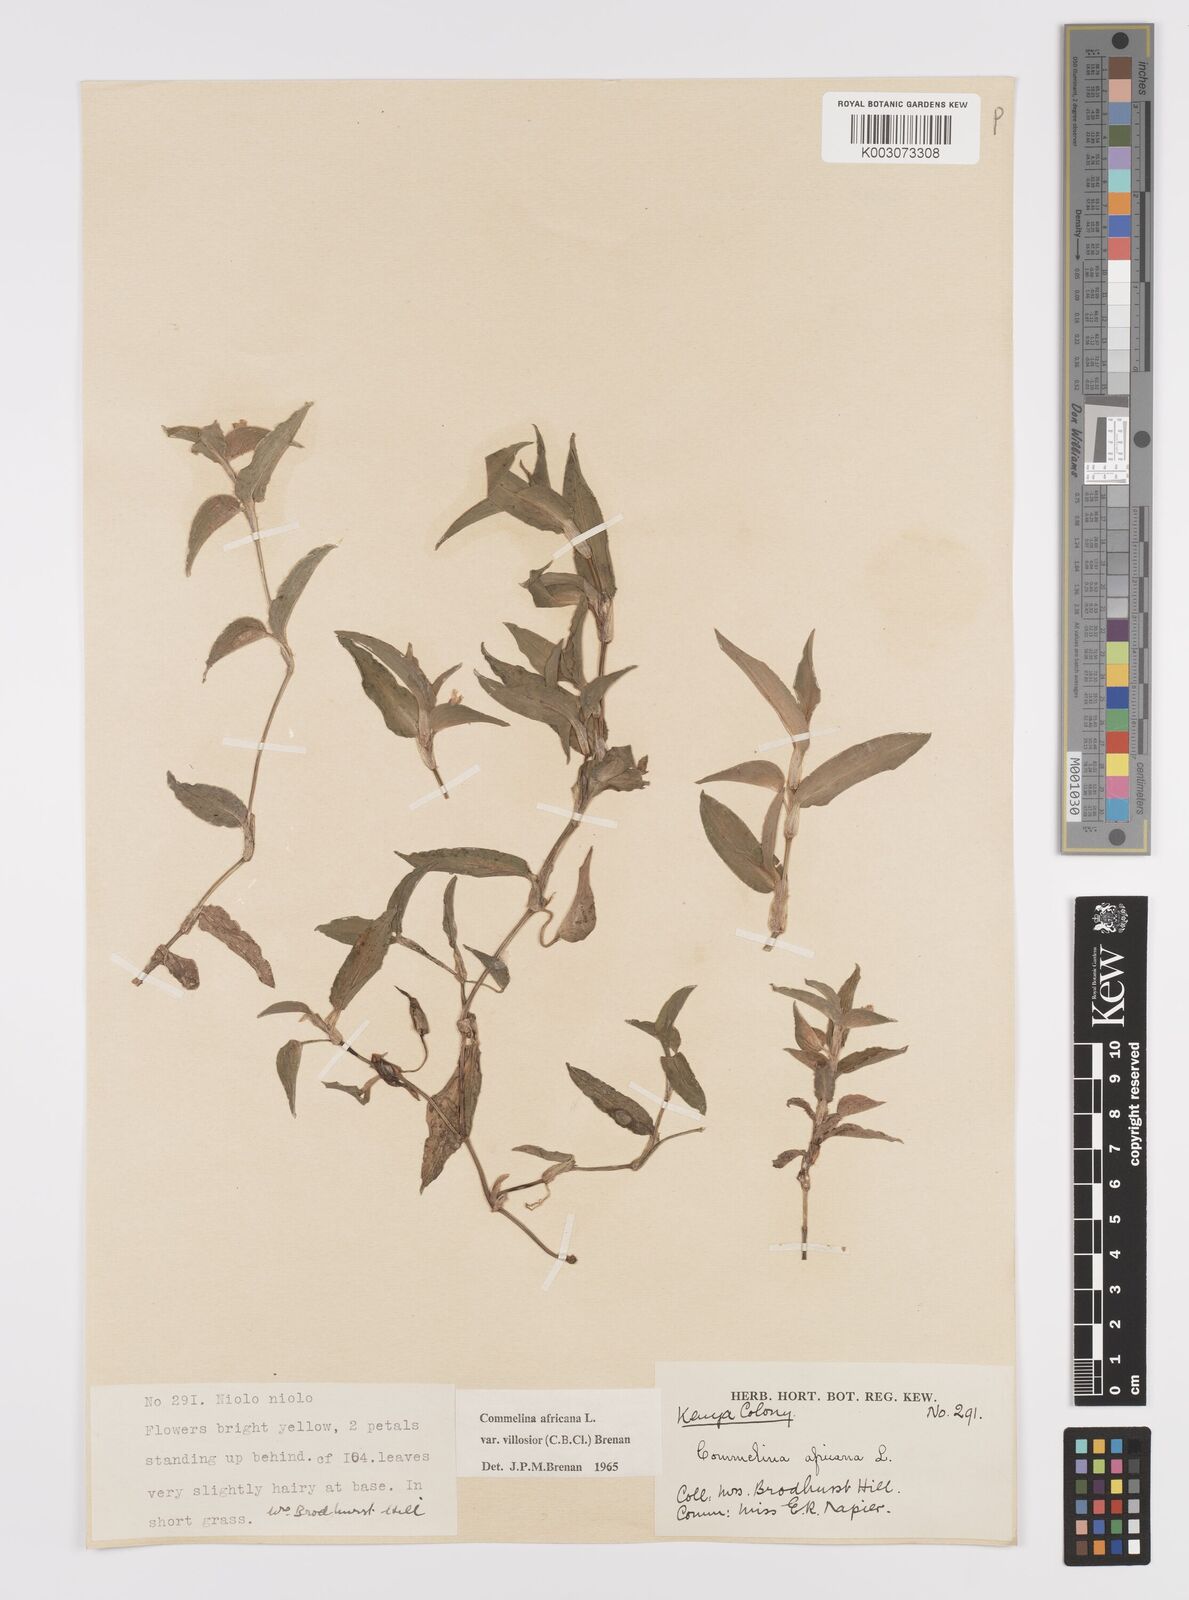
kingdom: Plantae
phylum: Tracheophyta
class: Liliopsida
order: Commelinales
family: Commelinaceae
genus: Commelina
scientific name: Commelina africana
